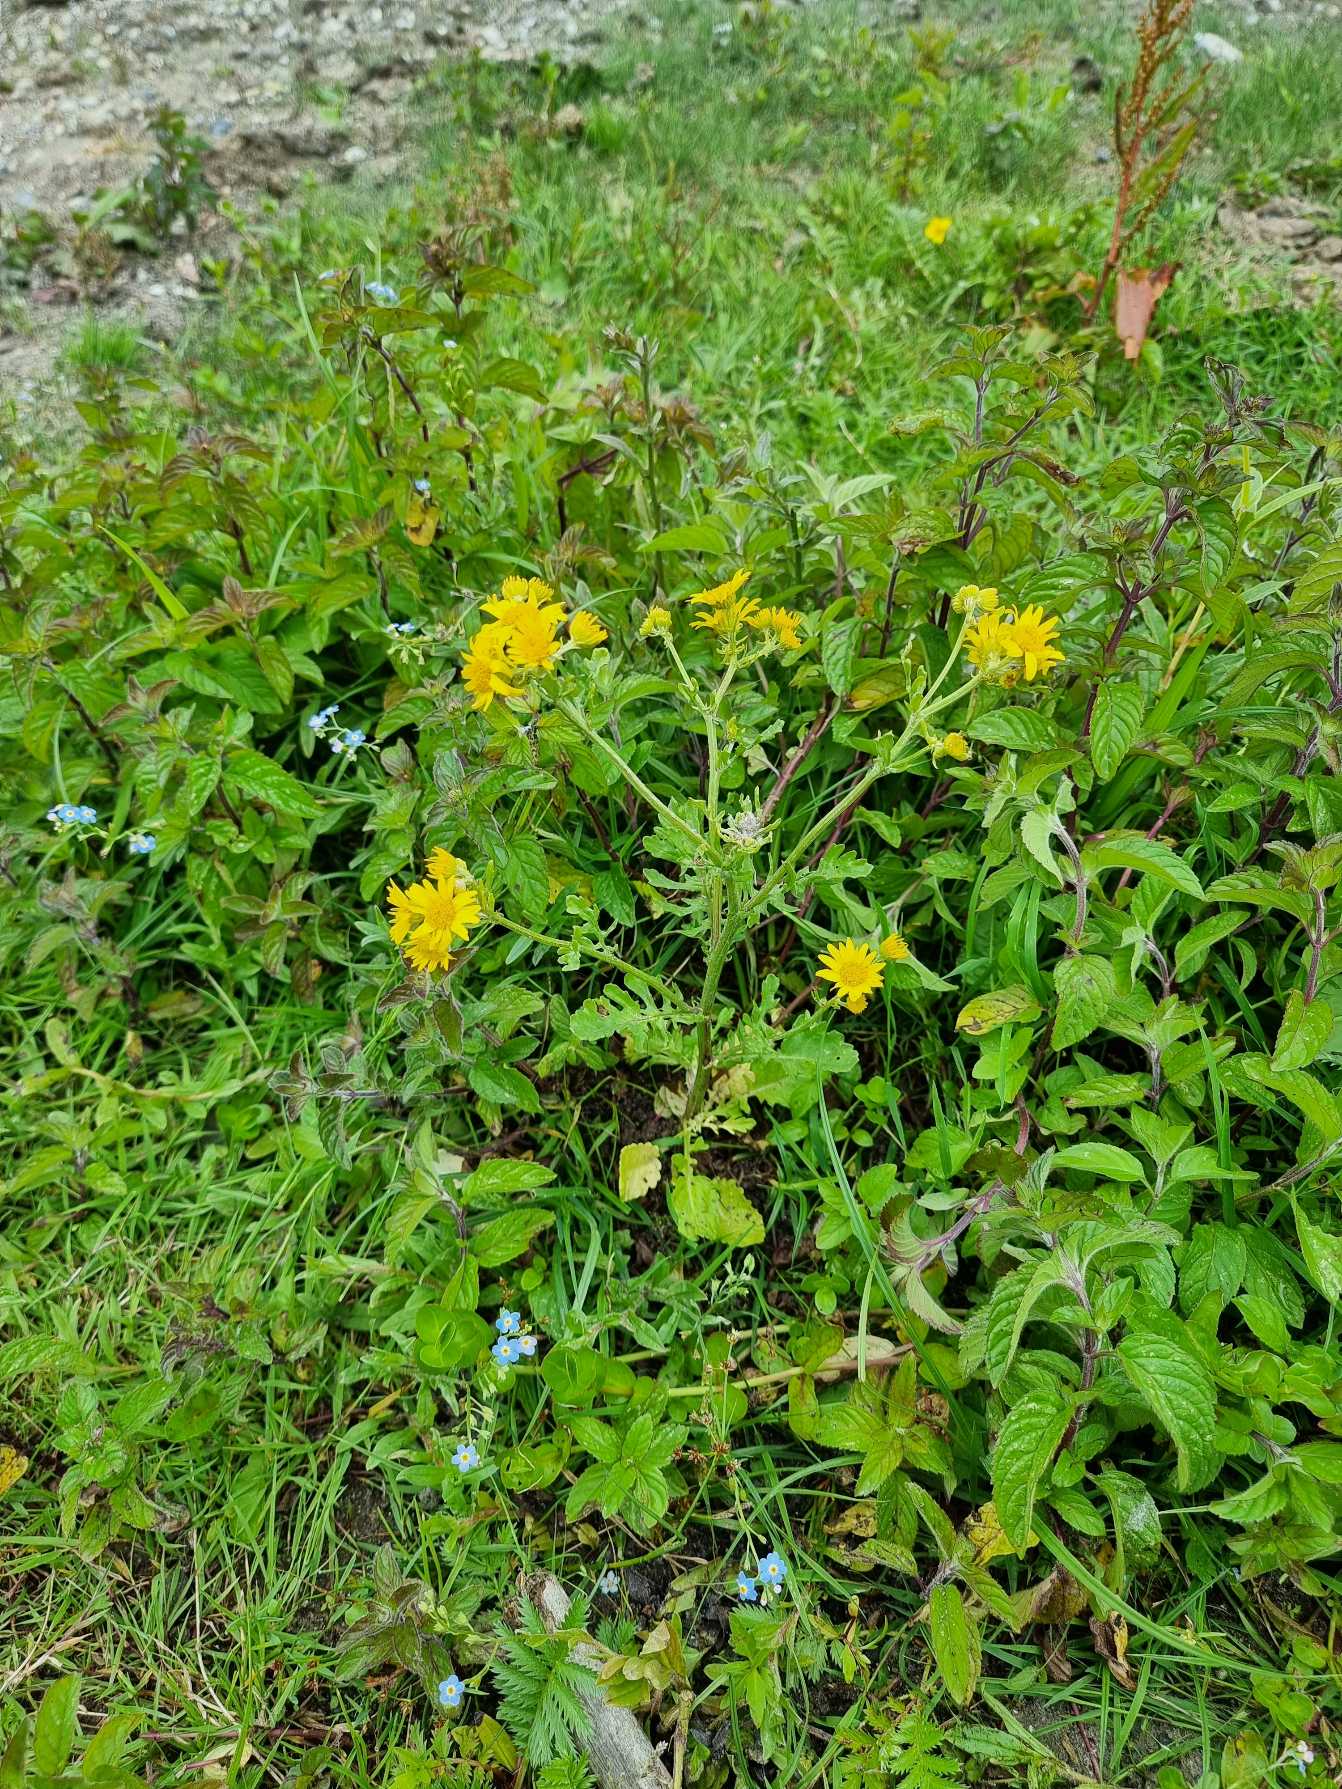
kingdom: Plantae
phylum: Tracheophyta
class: Magnoliopsida
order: Asterales
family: Asteraceae
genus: Jacobaea
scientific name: Jacobaea aquatica
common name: Vand-brandbæger
